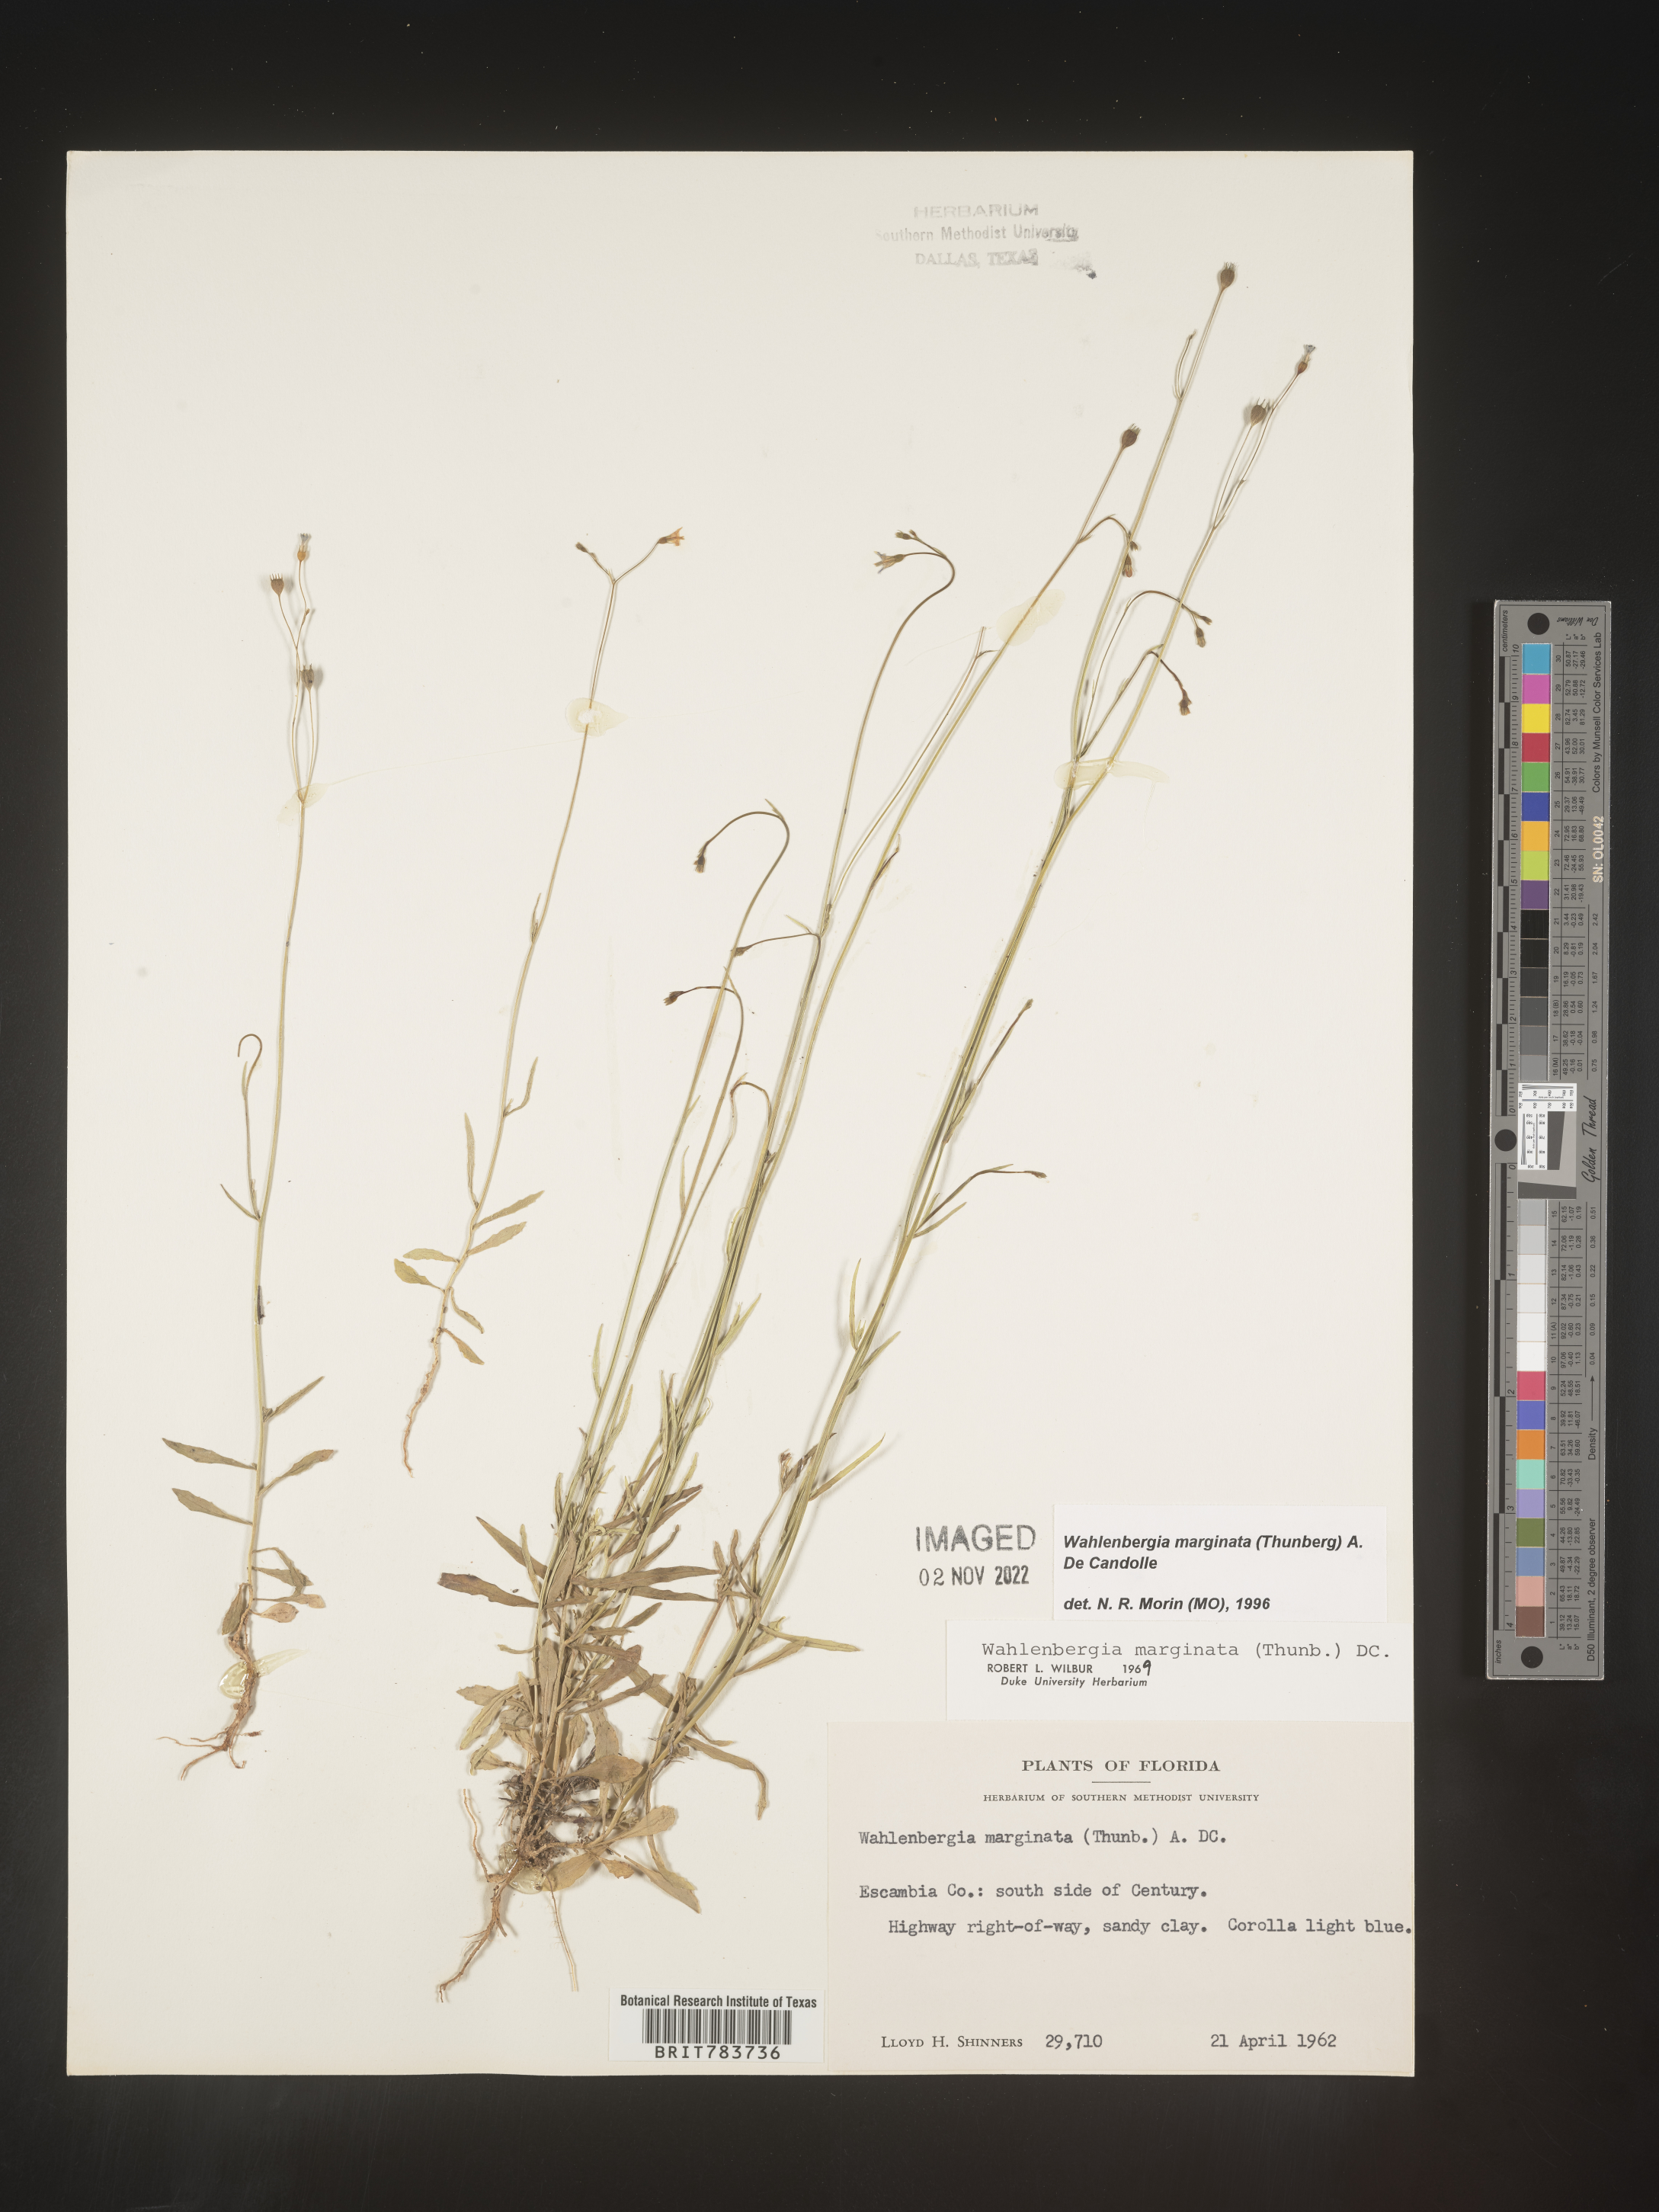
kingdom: Plantae
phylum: Tracheophyta
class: Magnoliopsida
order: Asterales
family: Campanulaceae
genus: Wahlenbergia
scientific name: Wahlenbergia marginata
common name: Southern rockbell
